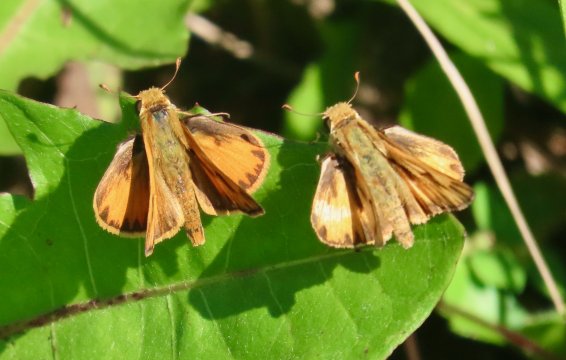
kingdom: Animalia
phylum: Arthropoda
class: Insecta
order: Lepidoptera
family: Hesperiidae
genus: Hylephila
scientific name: Hylephila phyleus
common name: Fiery Skipper
